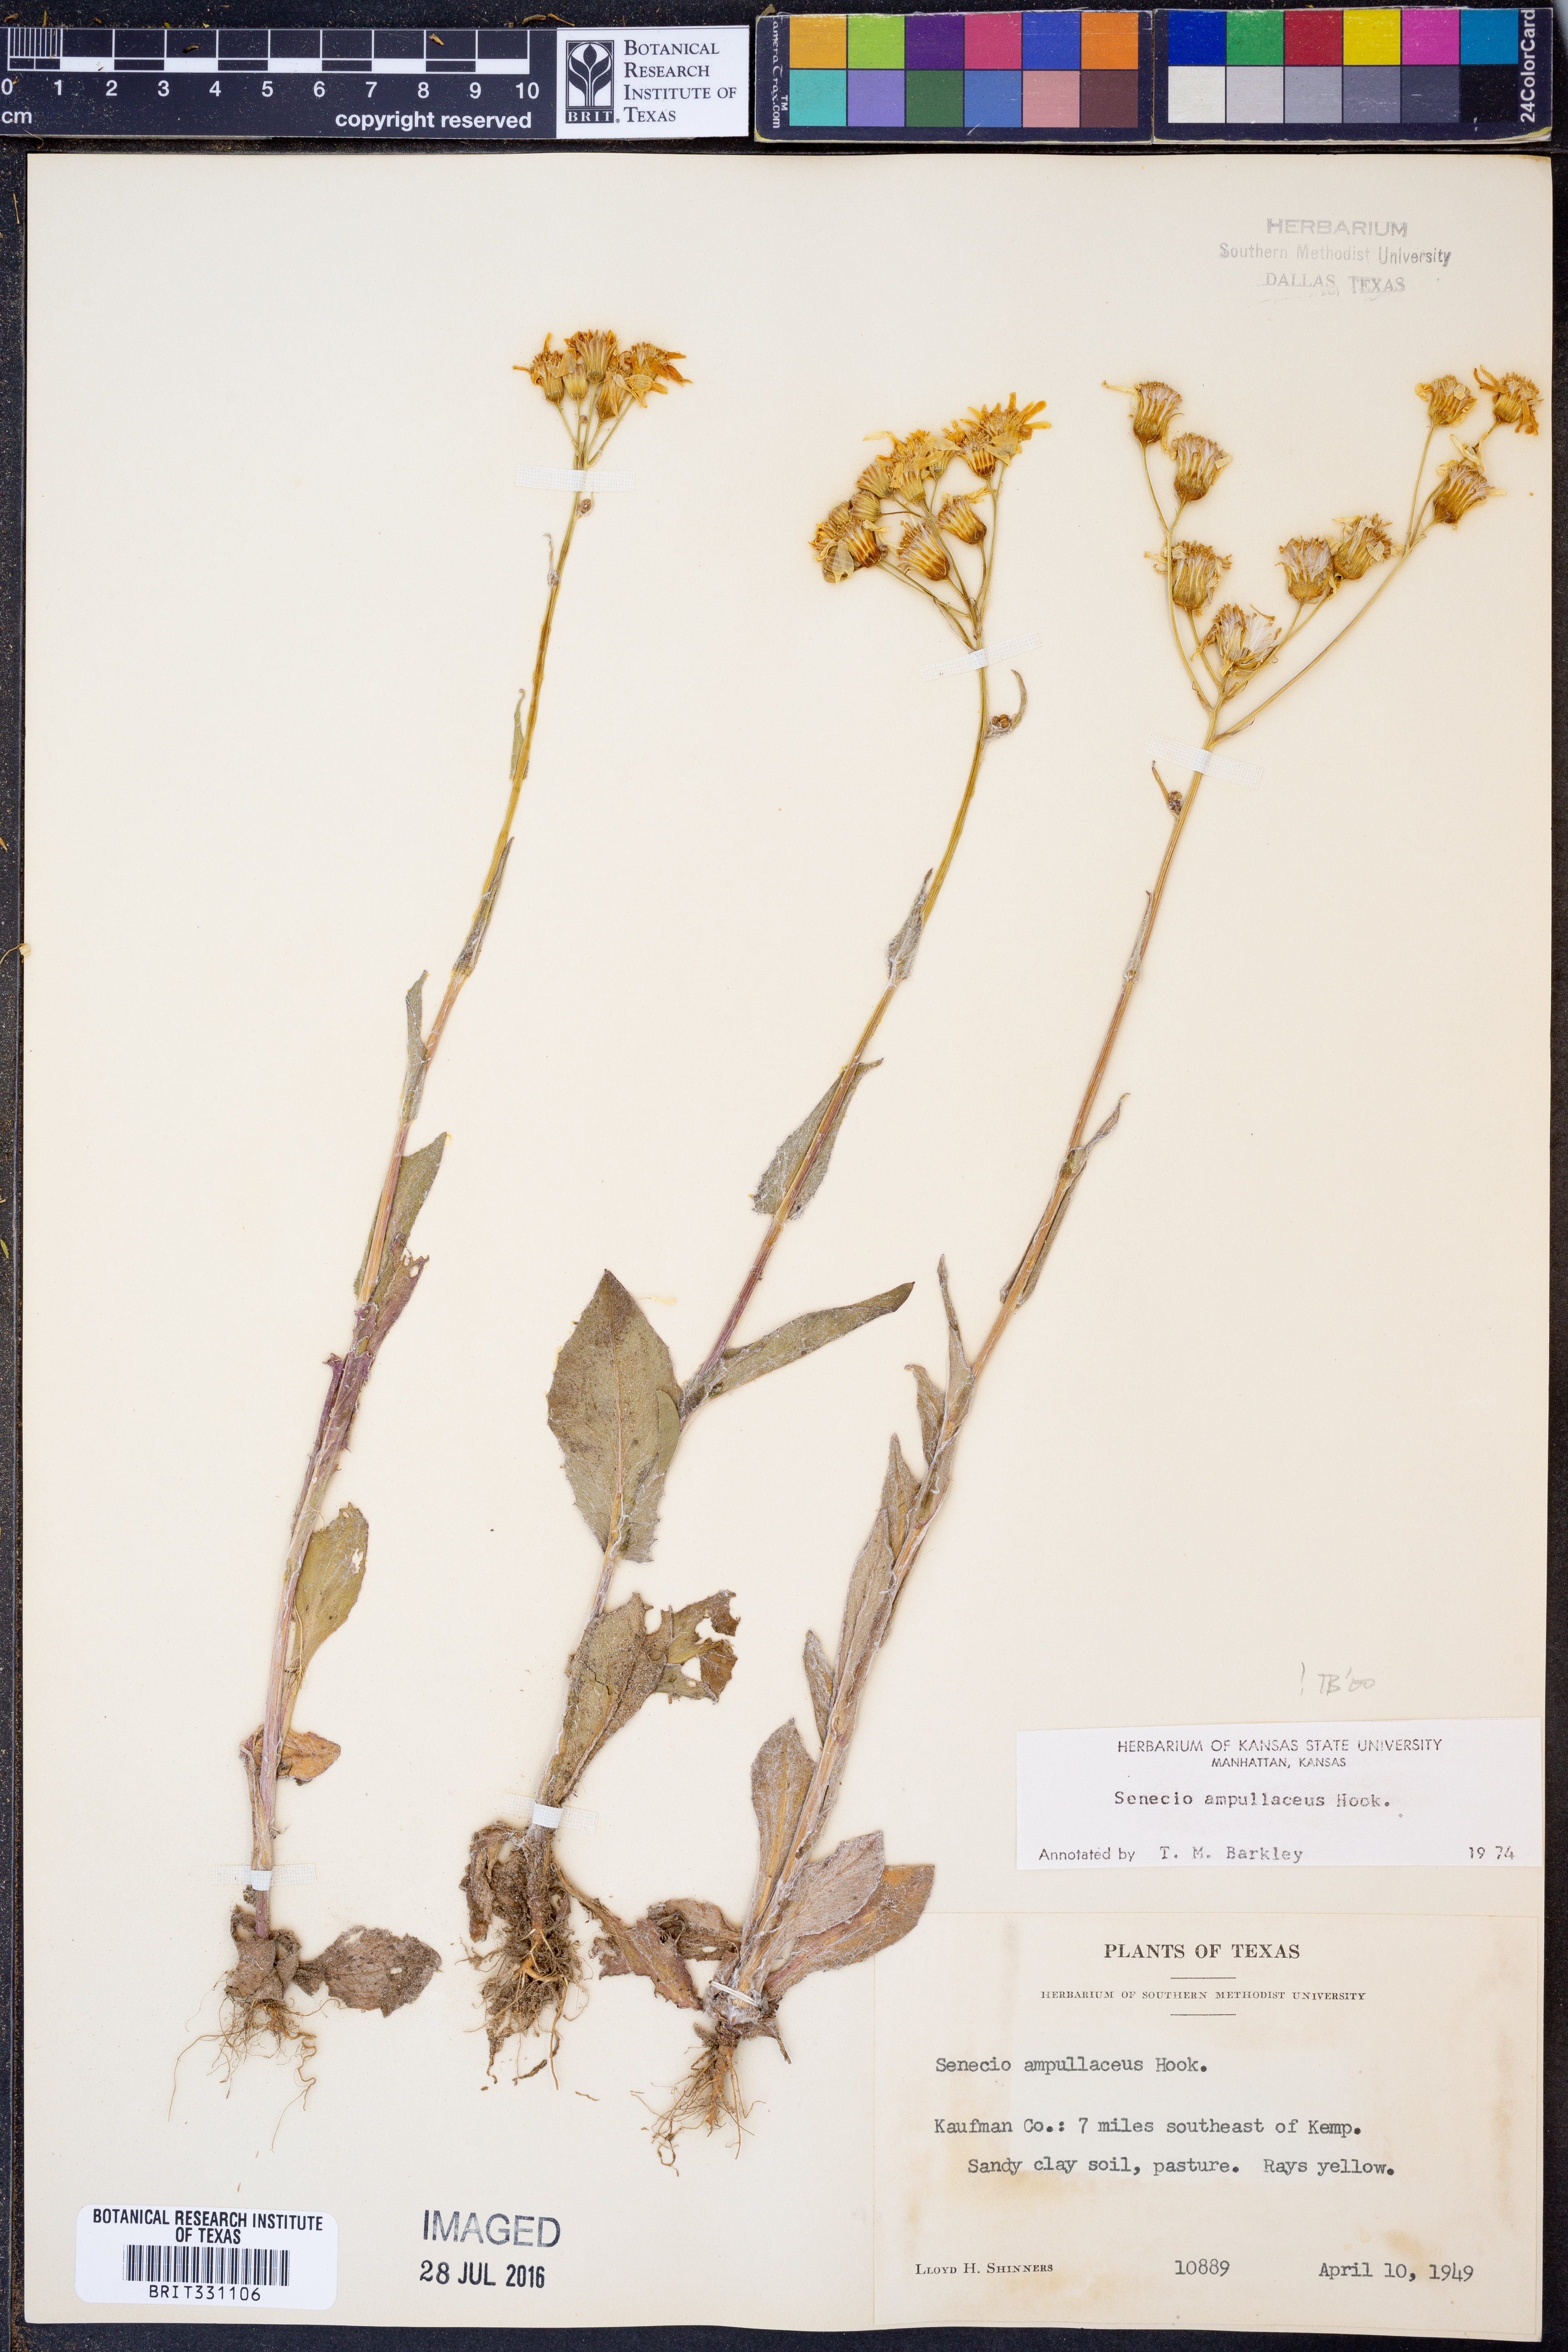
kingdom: Plantae
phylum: Tracheophyta
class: Magnoliopsida
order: Asterales
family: Asteraceae
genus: Senecio
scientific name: Senecio ampullaceus
